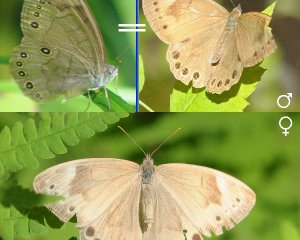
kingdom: Animalia
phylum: Arthropoda
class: Insecta
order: Lepidoptera
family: Nymphalidae
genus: Lethe
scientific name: Lethe eurydice
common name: Appalachian Eyed Brown
